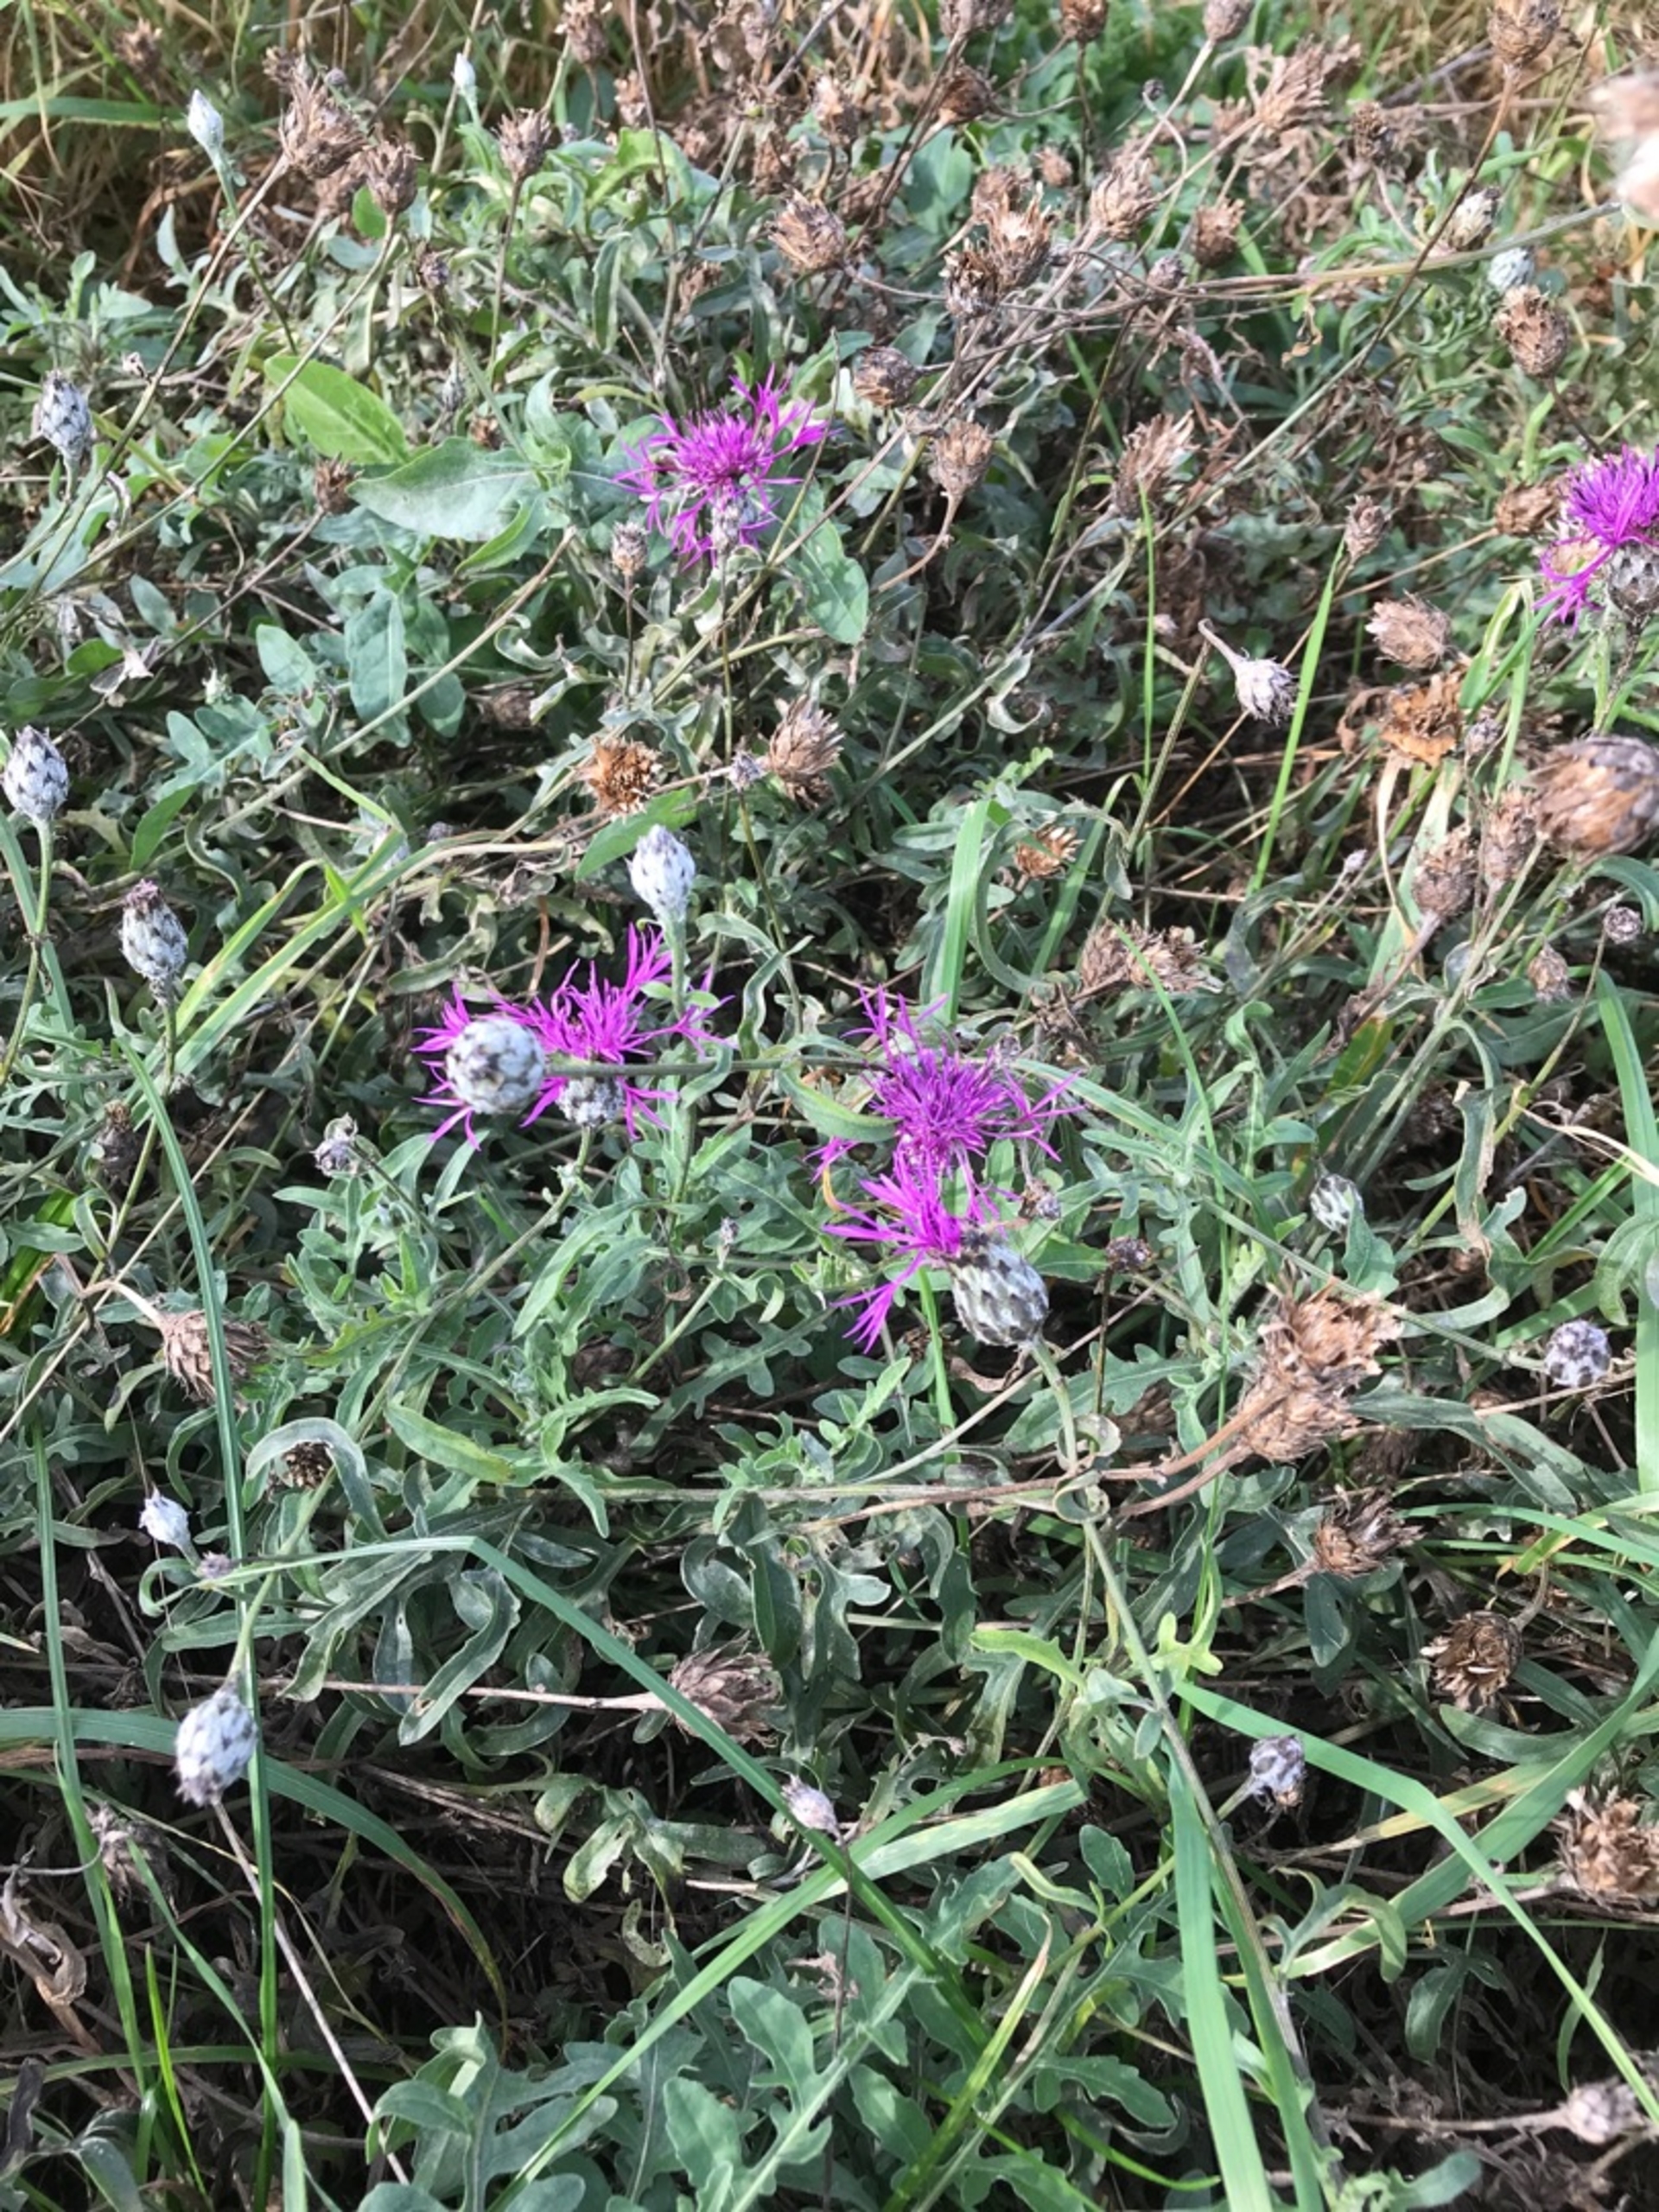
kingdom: Plantae
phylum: Tracheophyta
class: Magnoliopsida
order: Asterales
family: Asteraceae
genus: Centaurea
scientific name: Centaurea scabiosa
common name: Stor knopurt
